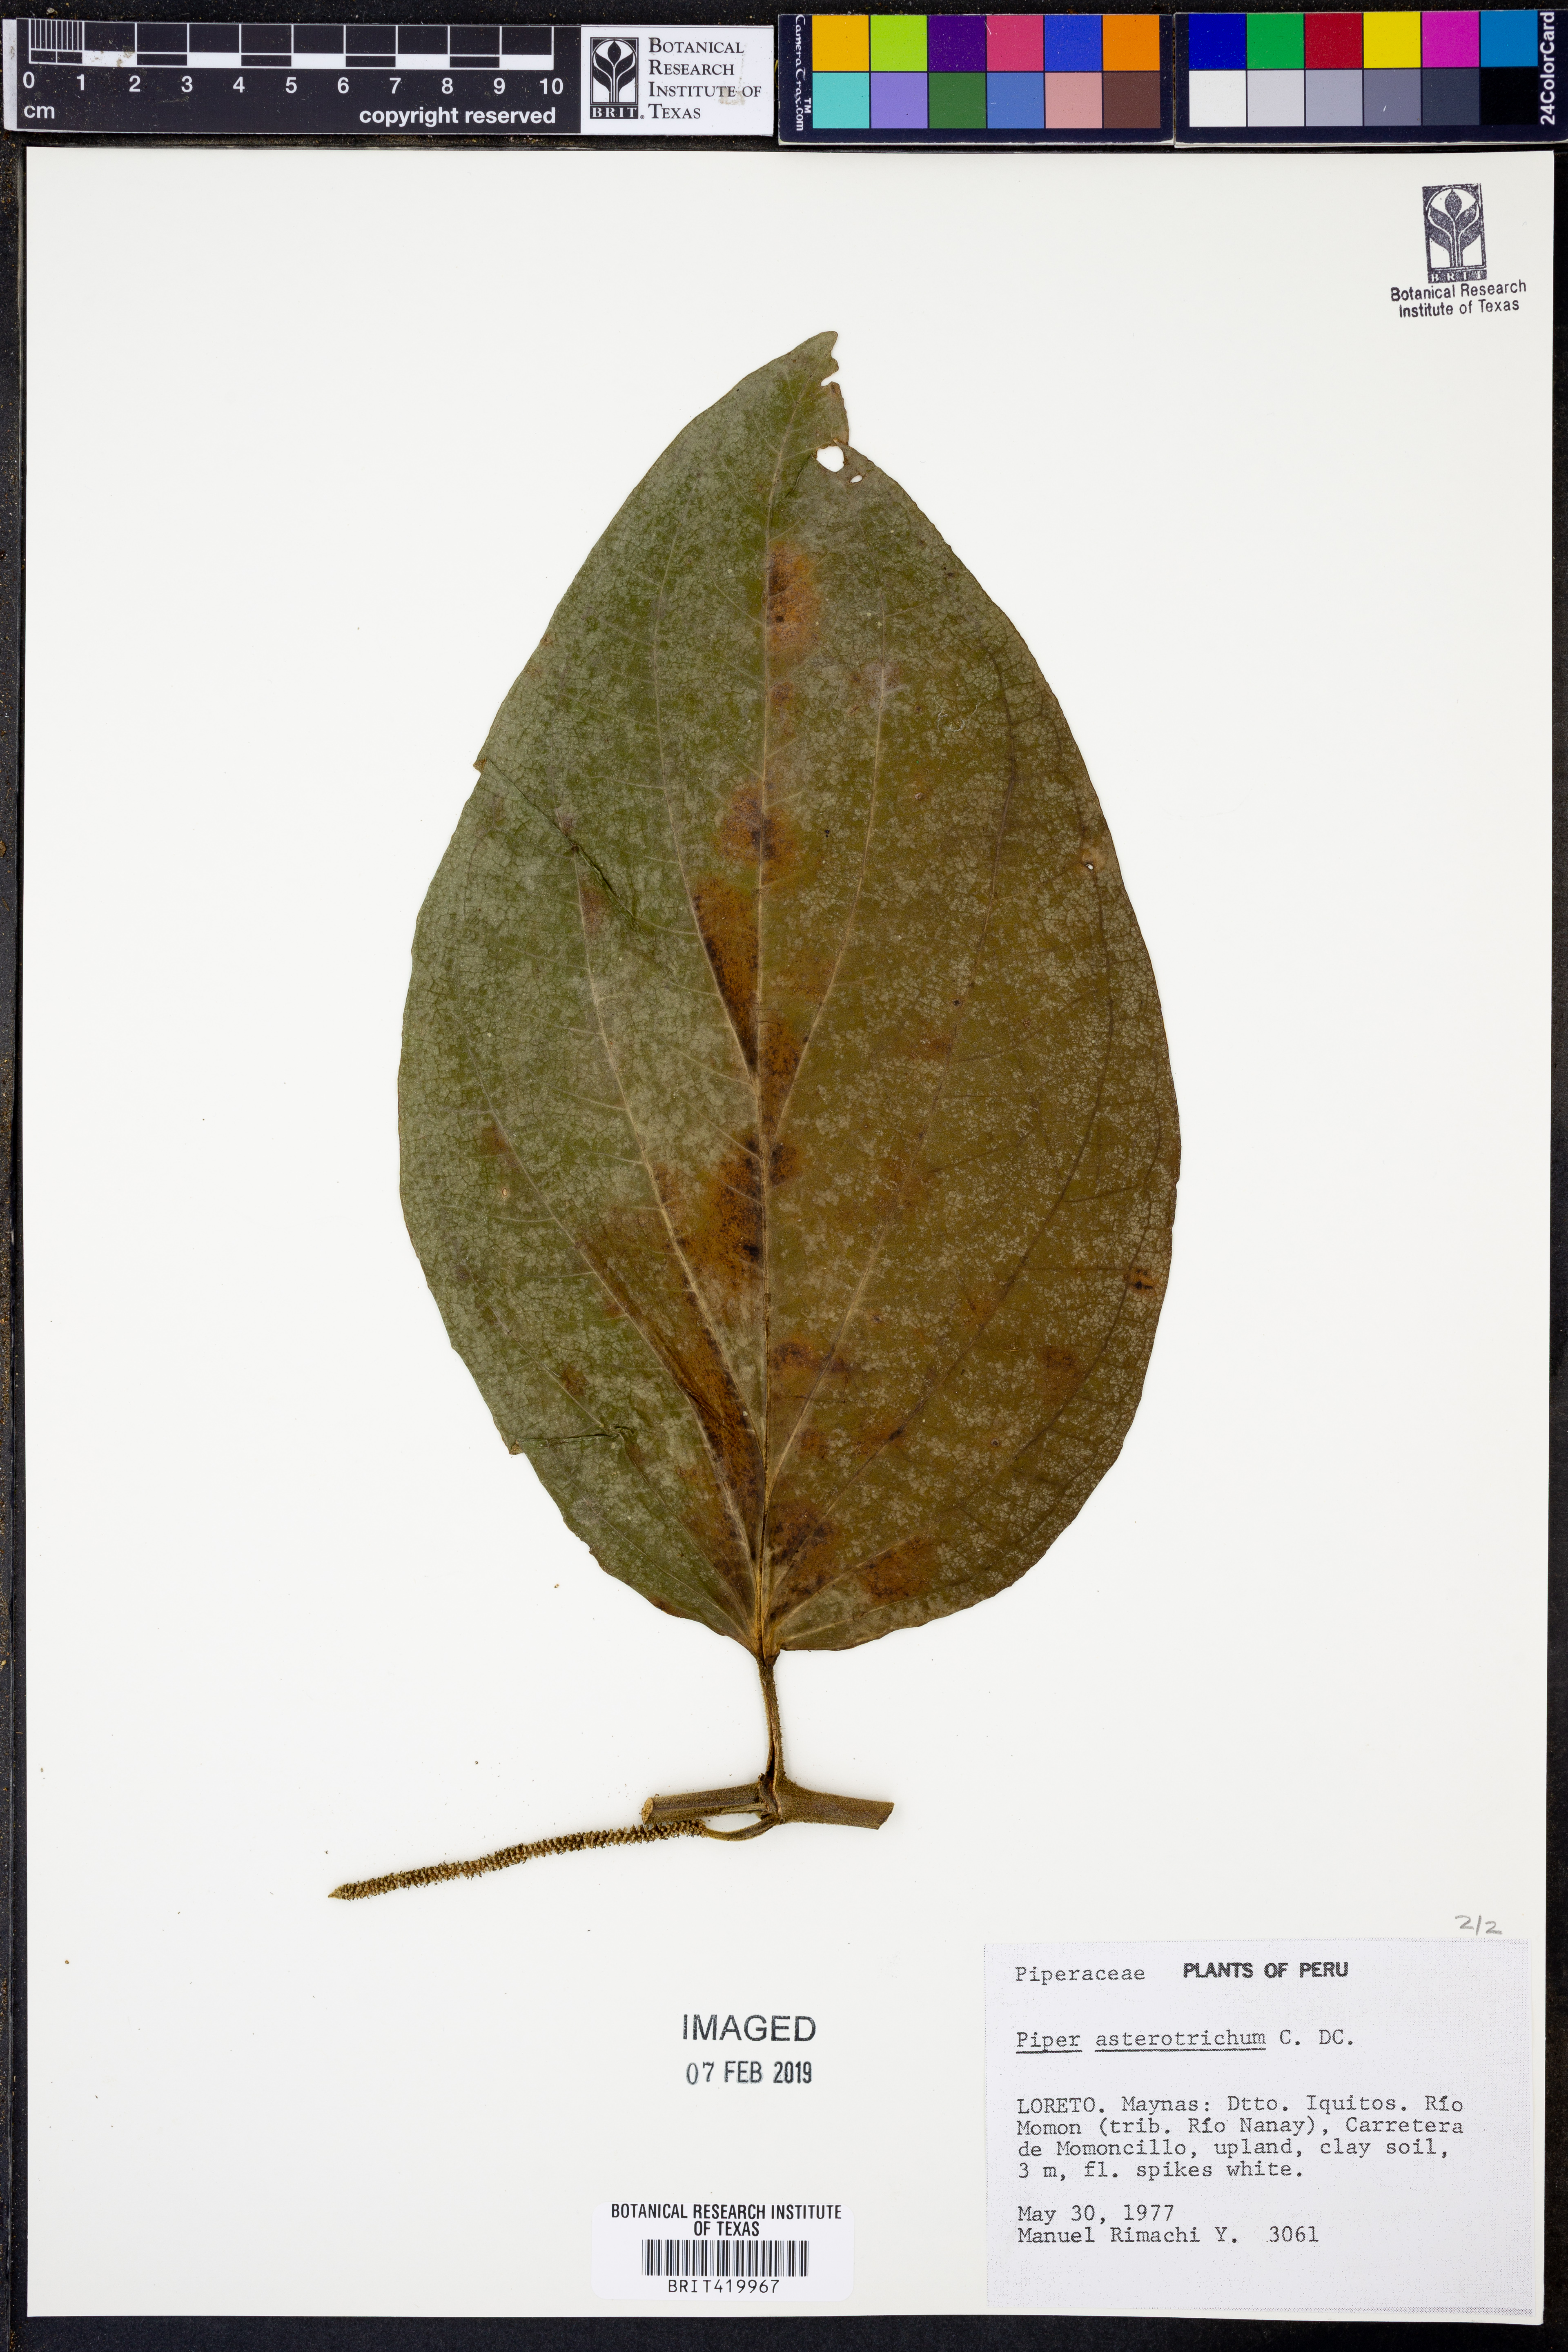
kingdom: Plantae
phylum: Tracheophyta
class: Magnoliopsida
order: Piperales
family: Piperaceae
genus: Piper
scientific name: Piper asterotrichum
